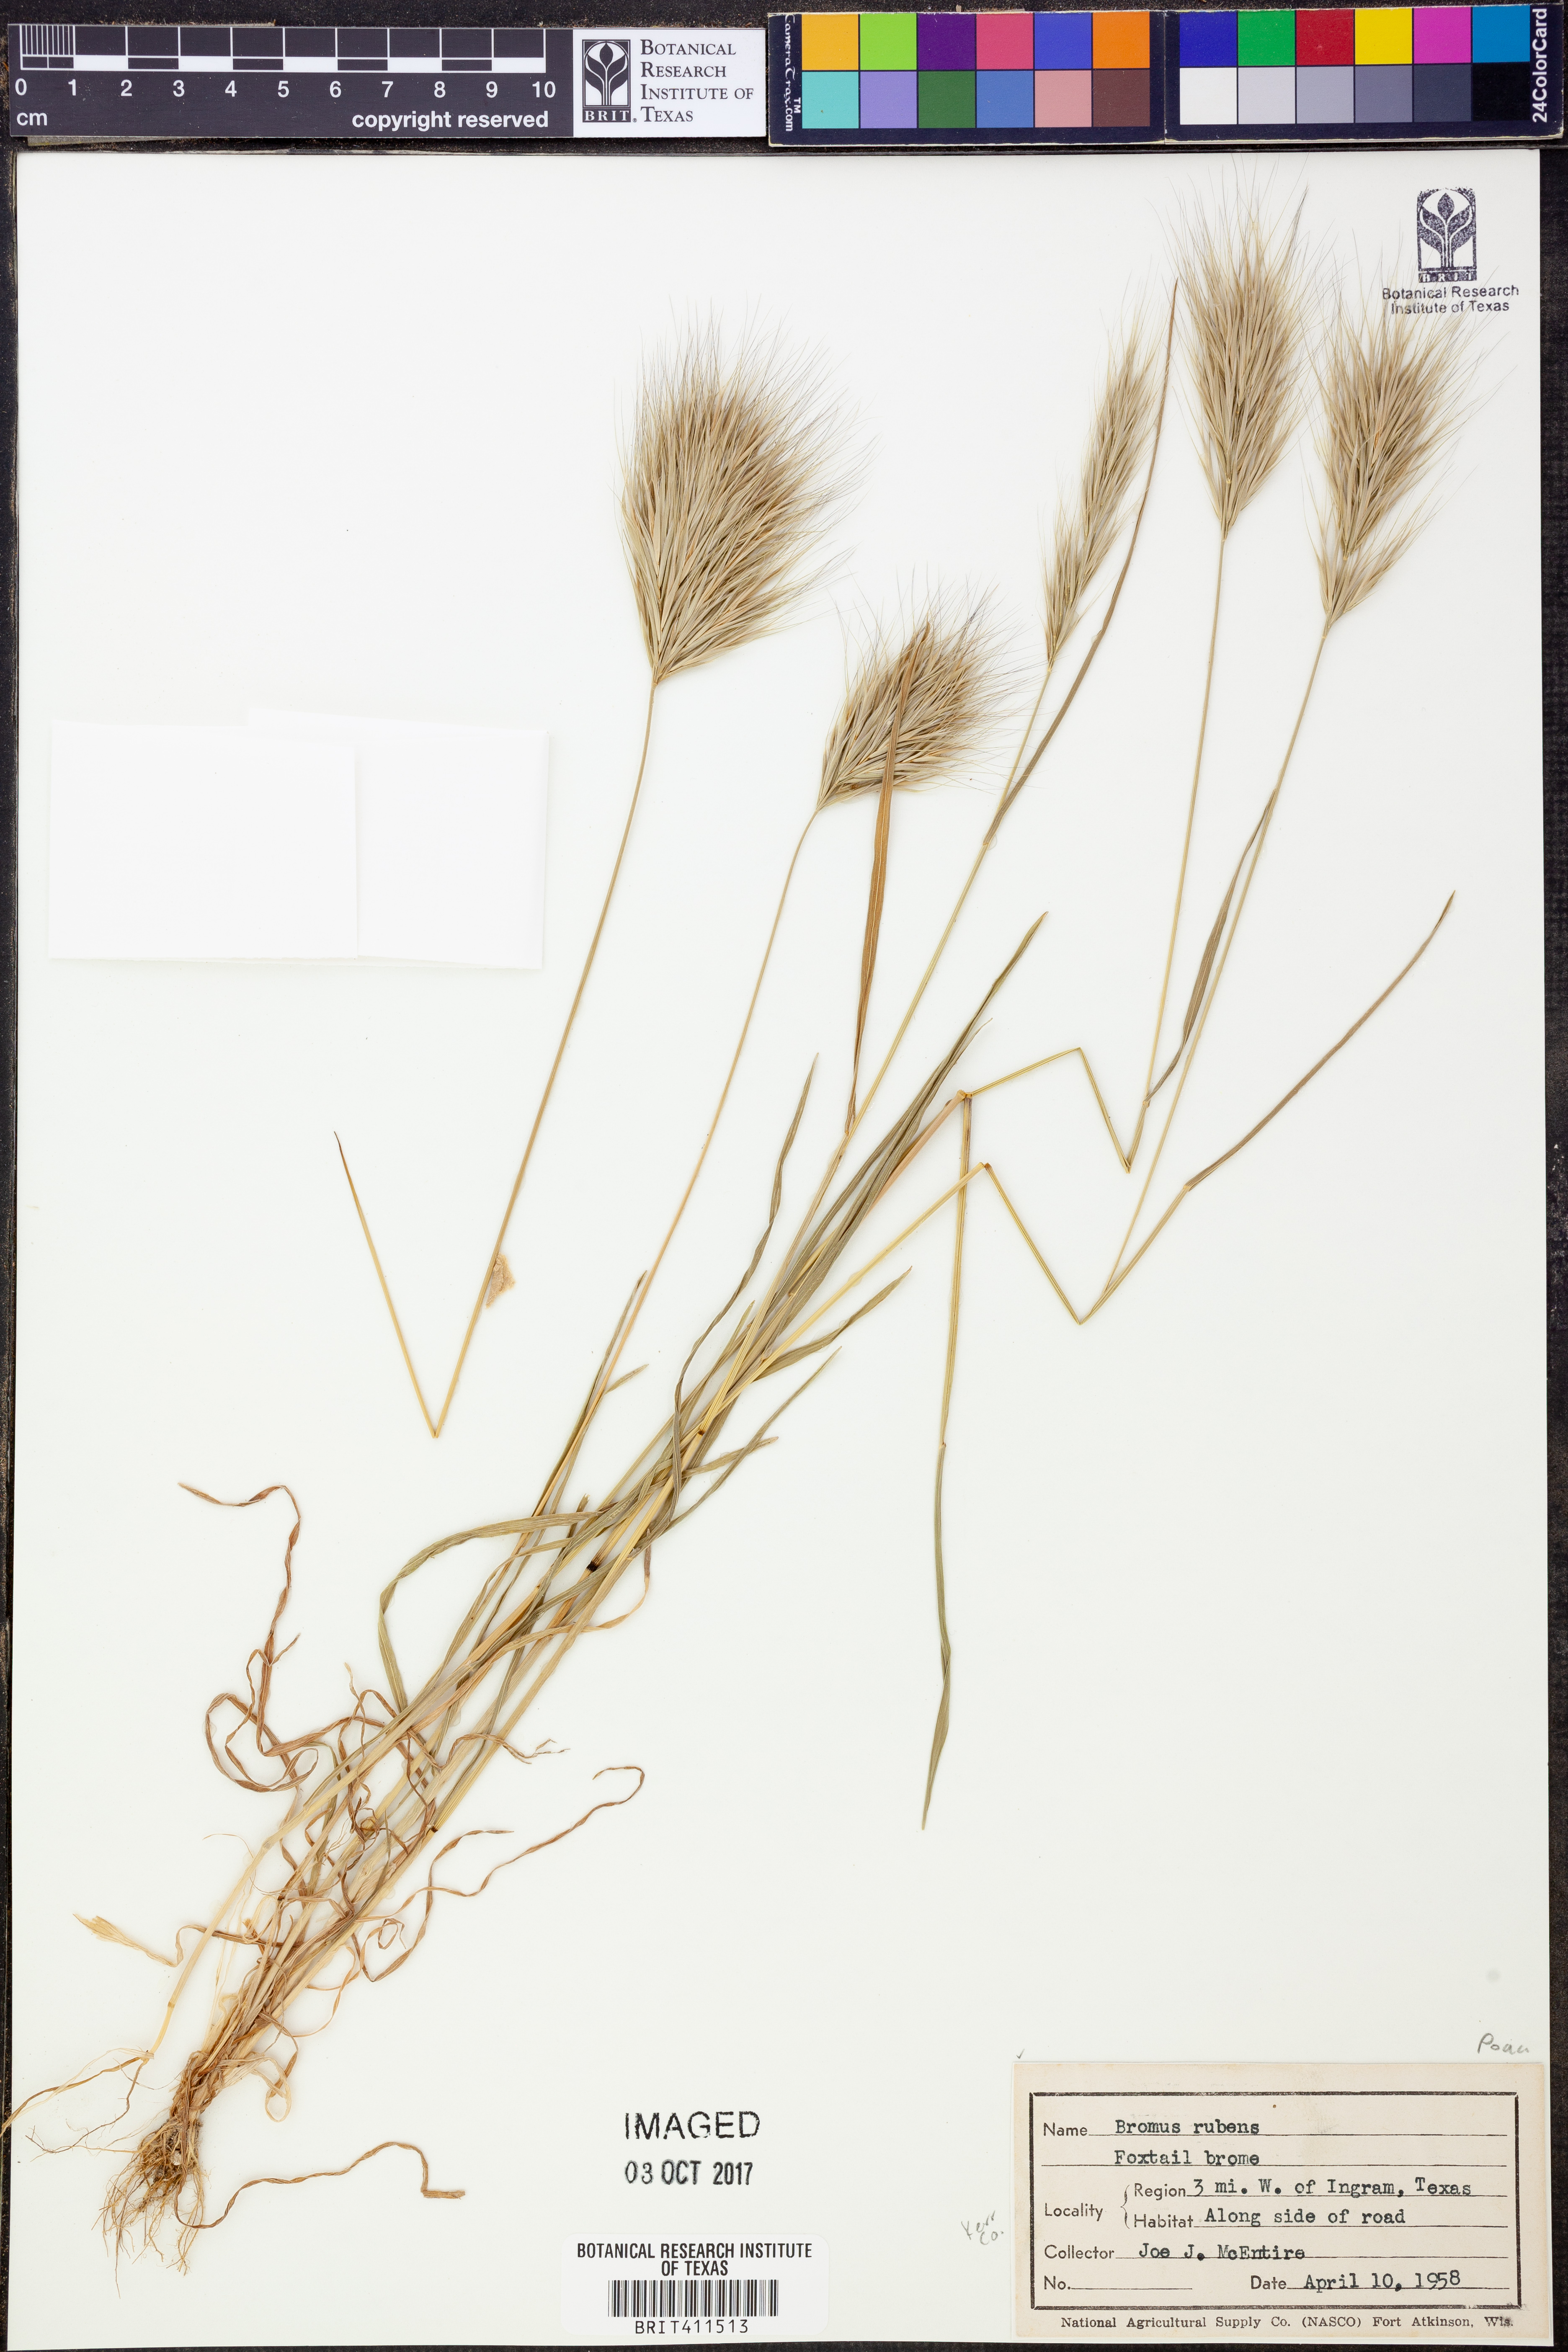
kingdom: Plantae
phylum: Tracheophyta
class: Liliopsida
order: Poales
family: Poaceae
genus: Bromus
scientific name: Bromus rubens
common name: Red brome
